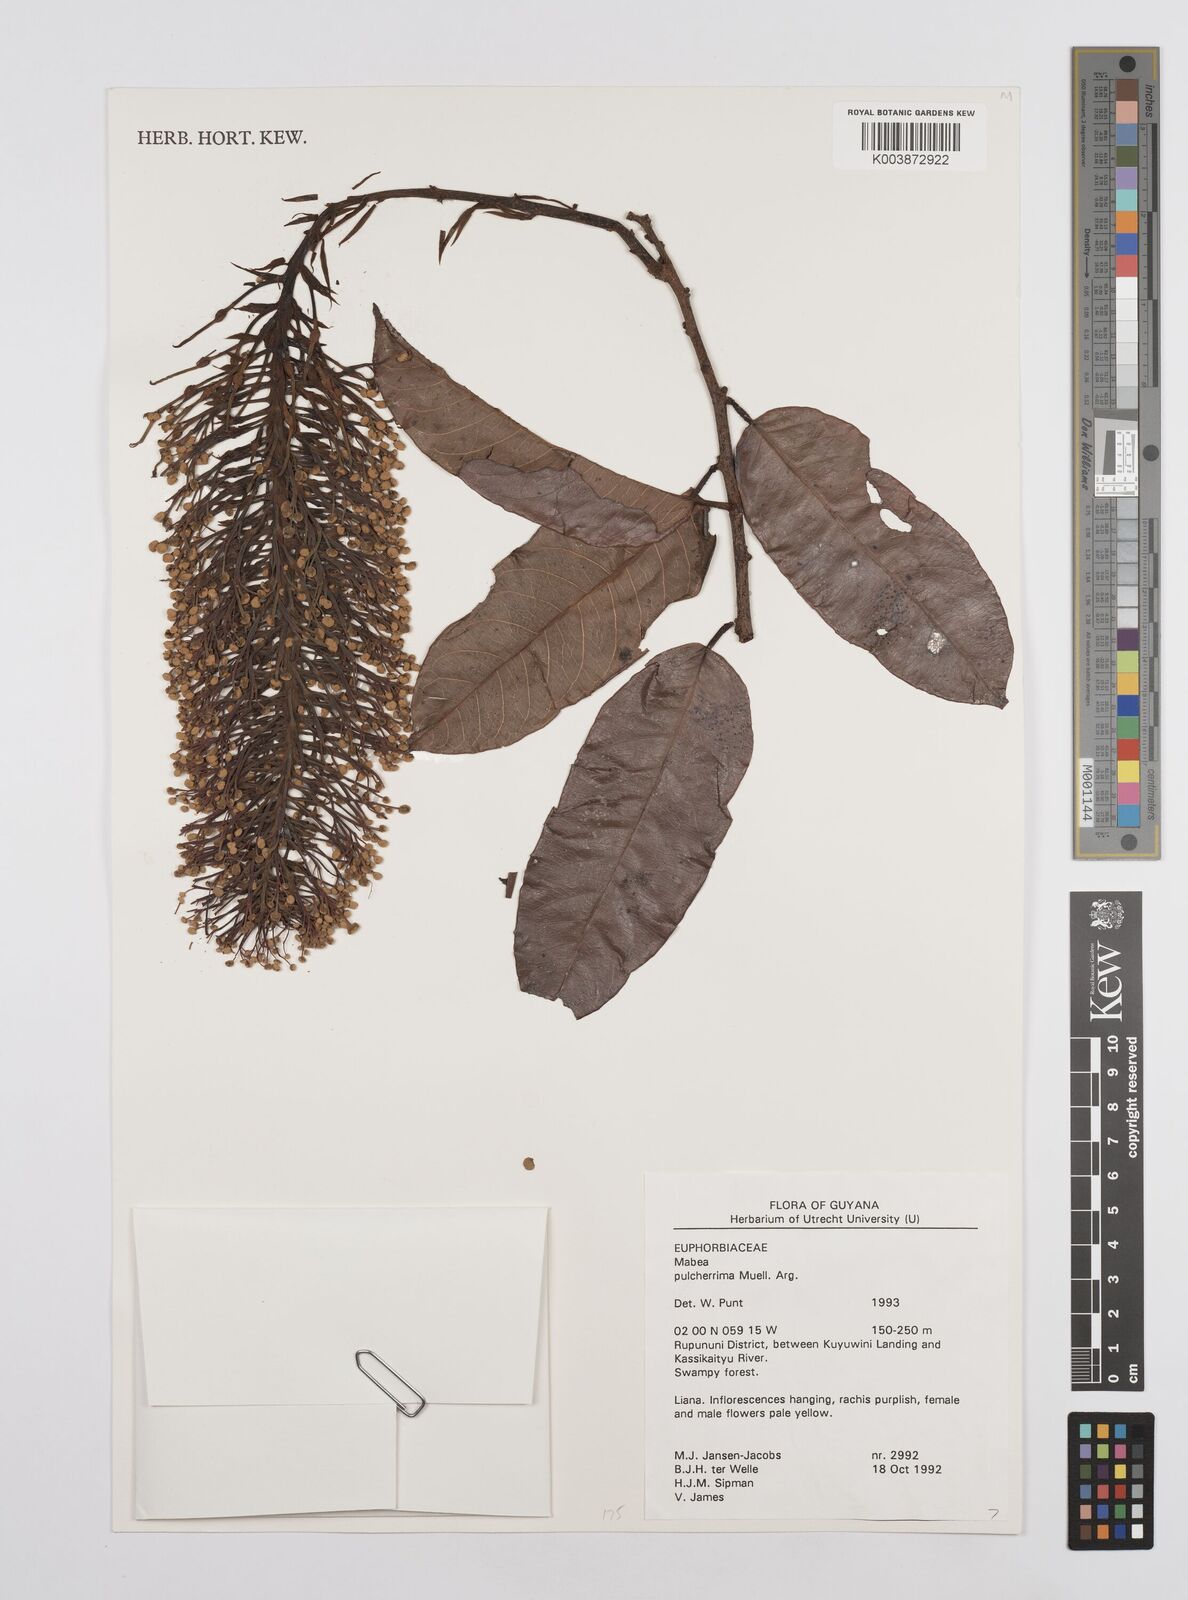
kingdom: Plantae
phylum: Tracheophyta
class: Magnoliopsida
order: Malpighiales
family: Euphorbiaceae
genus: Mabea
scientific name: Mabea pulcherrima
